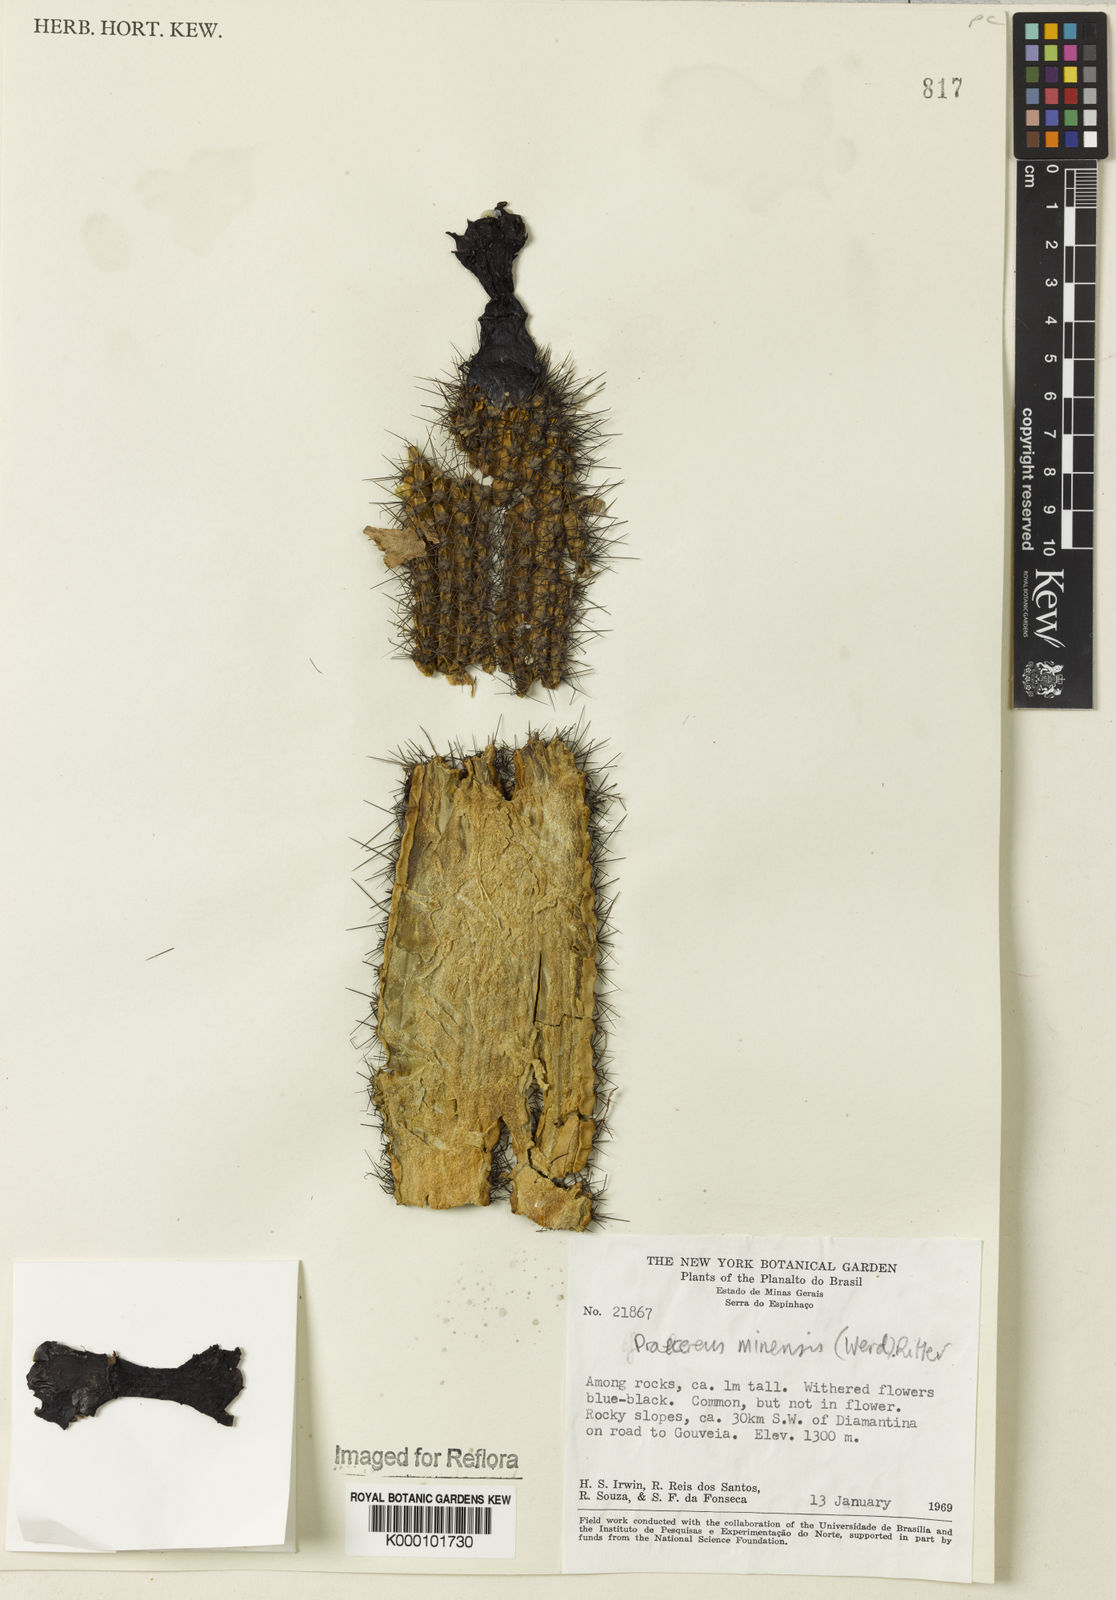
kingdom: Plantae
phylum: Tracheophyta
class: Magnoliopsida
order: Caryophyllales
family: Cactaceae
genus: Cipocereus
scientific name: Cipocereus minensis
